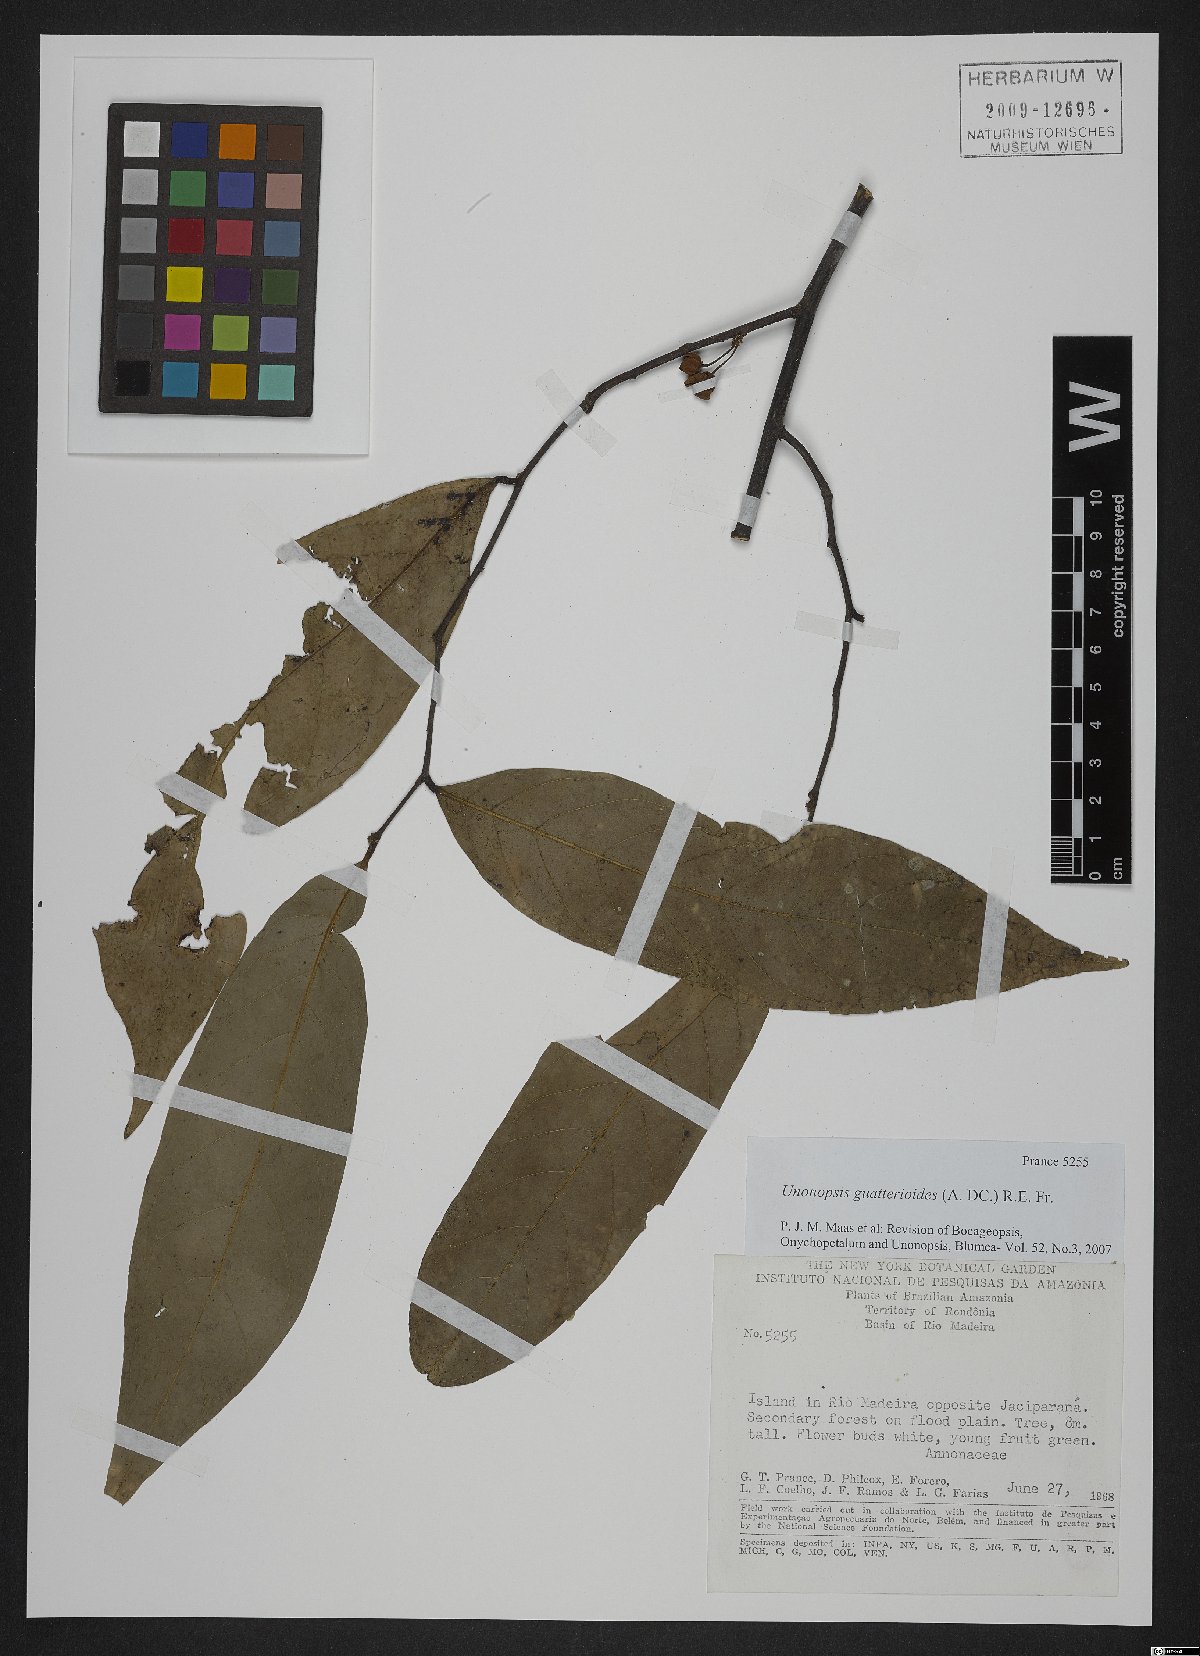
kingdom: Plantae
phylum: Tracheophyta
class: Magnoliopsida
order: Magnoliales
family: Annonaceae
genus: Unonopsis
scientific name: Unonopsis guatterioides
